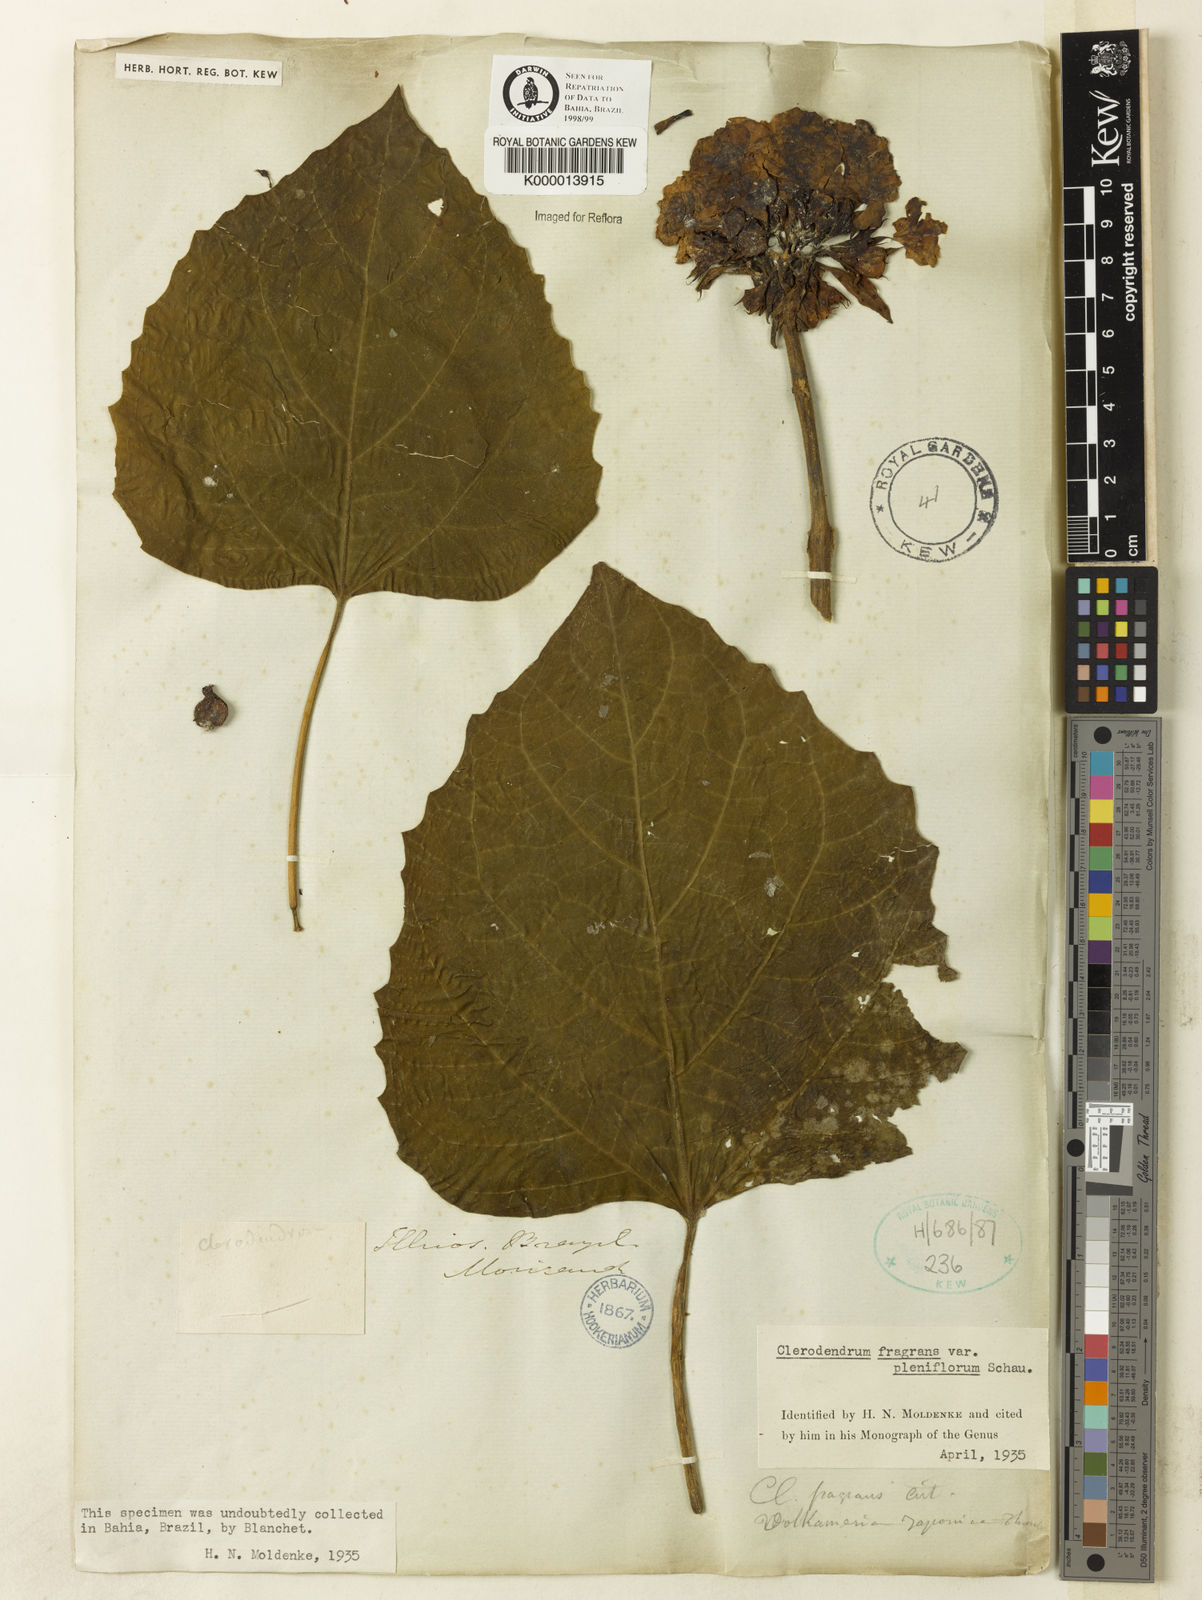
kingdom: Plantae
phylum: Tracheophyta
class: Magnoliopsida
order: Lamiales
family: Lamiaceae
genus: Clerodendrum
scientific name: Clerodendrum chinense
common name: Stickbush
